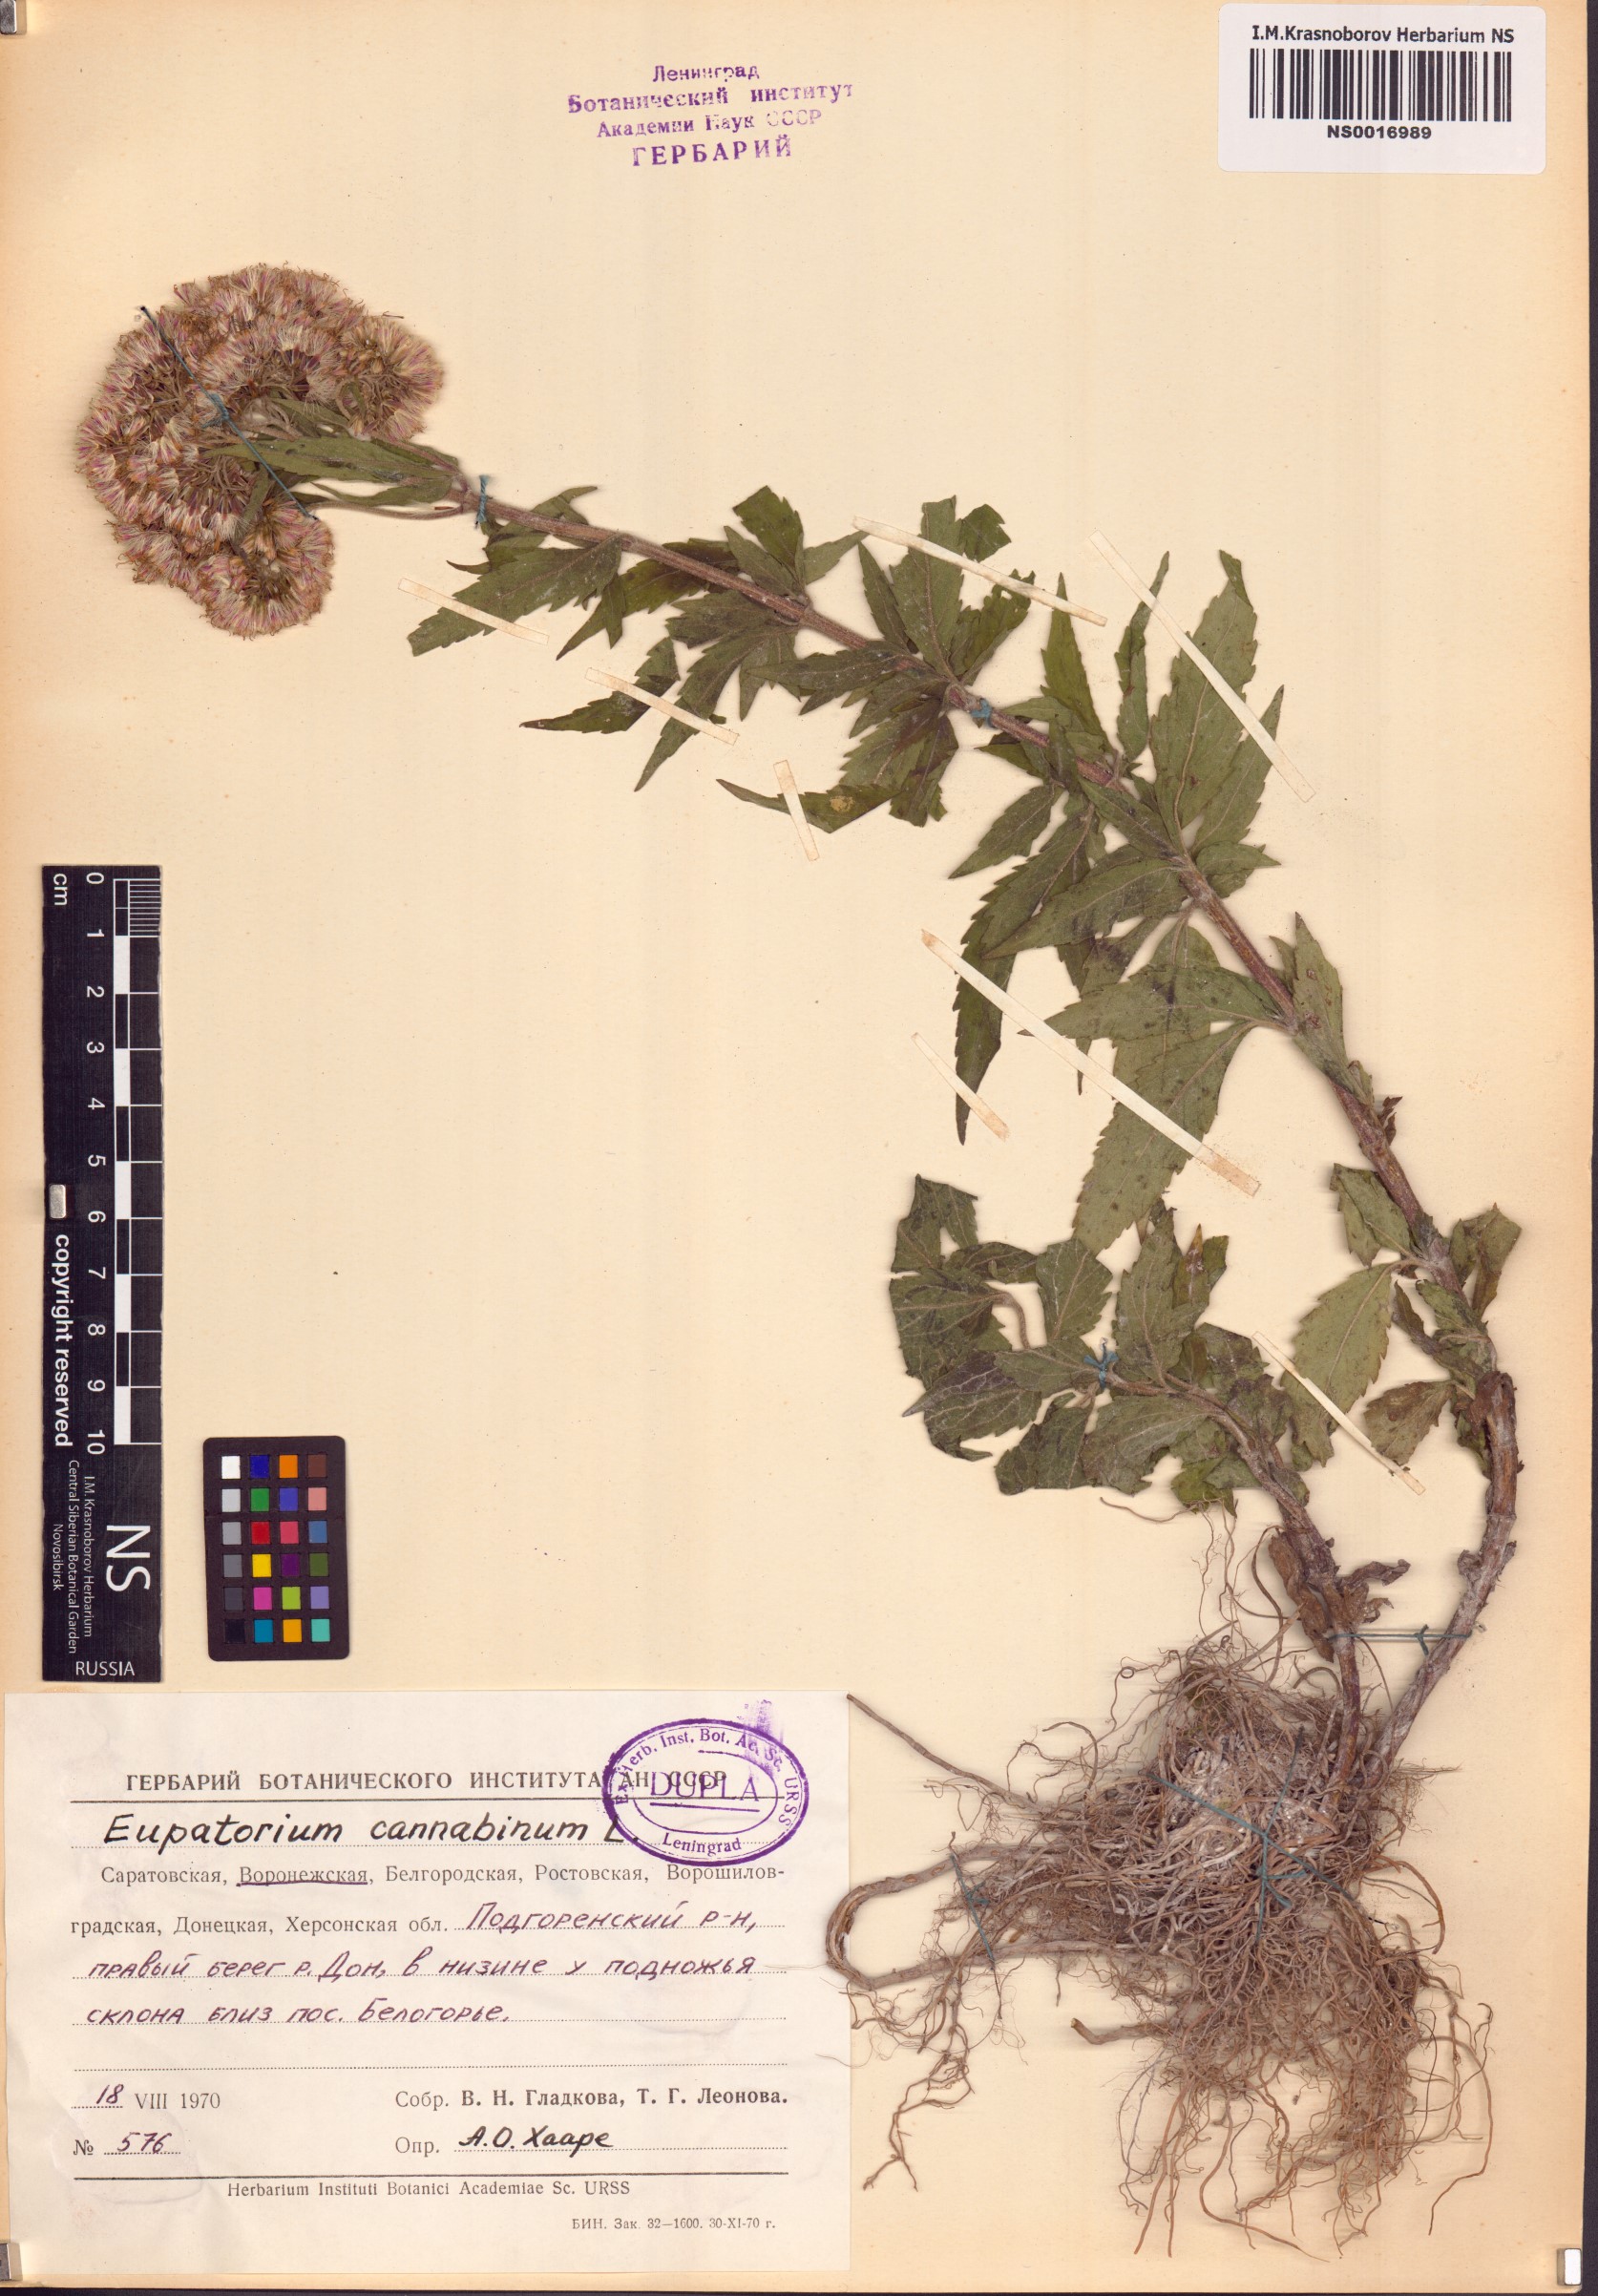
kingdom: Plantae
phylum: Tracheophyta
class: Magnoliopsida
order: Asterales
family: Asteraceae
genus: Eupatorium
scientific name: Eupatorium cannabinum
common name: Hemp-agrimony
